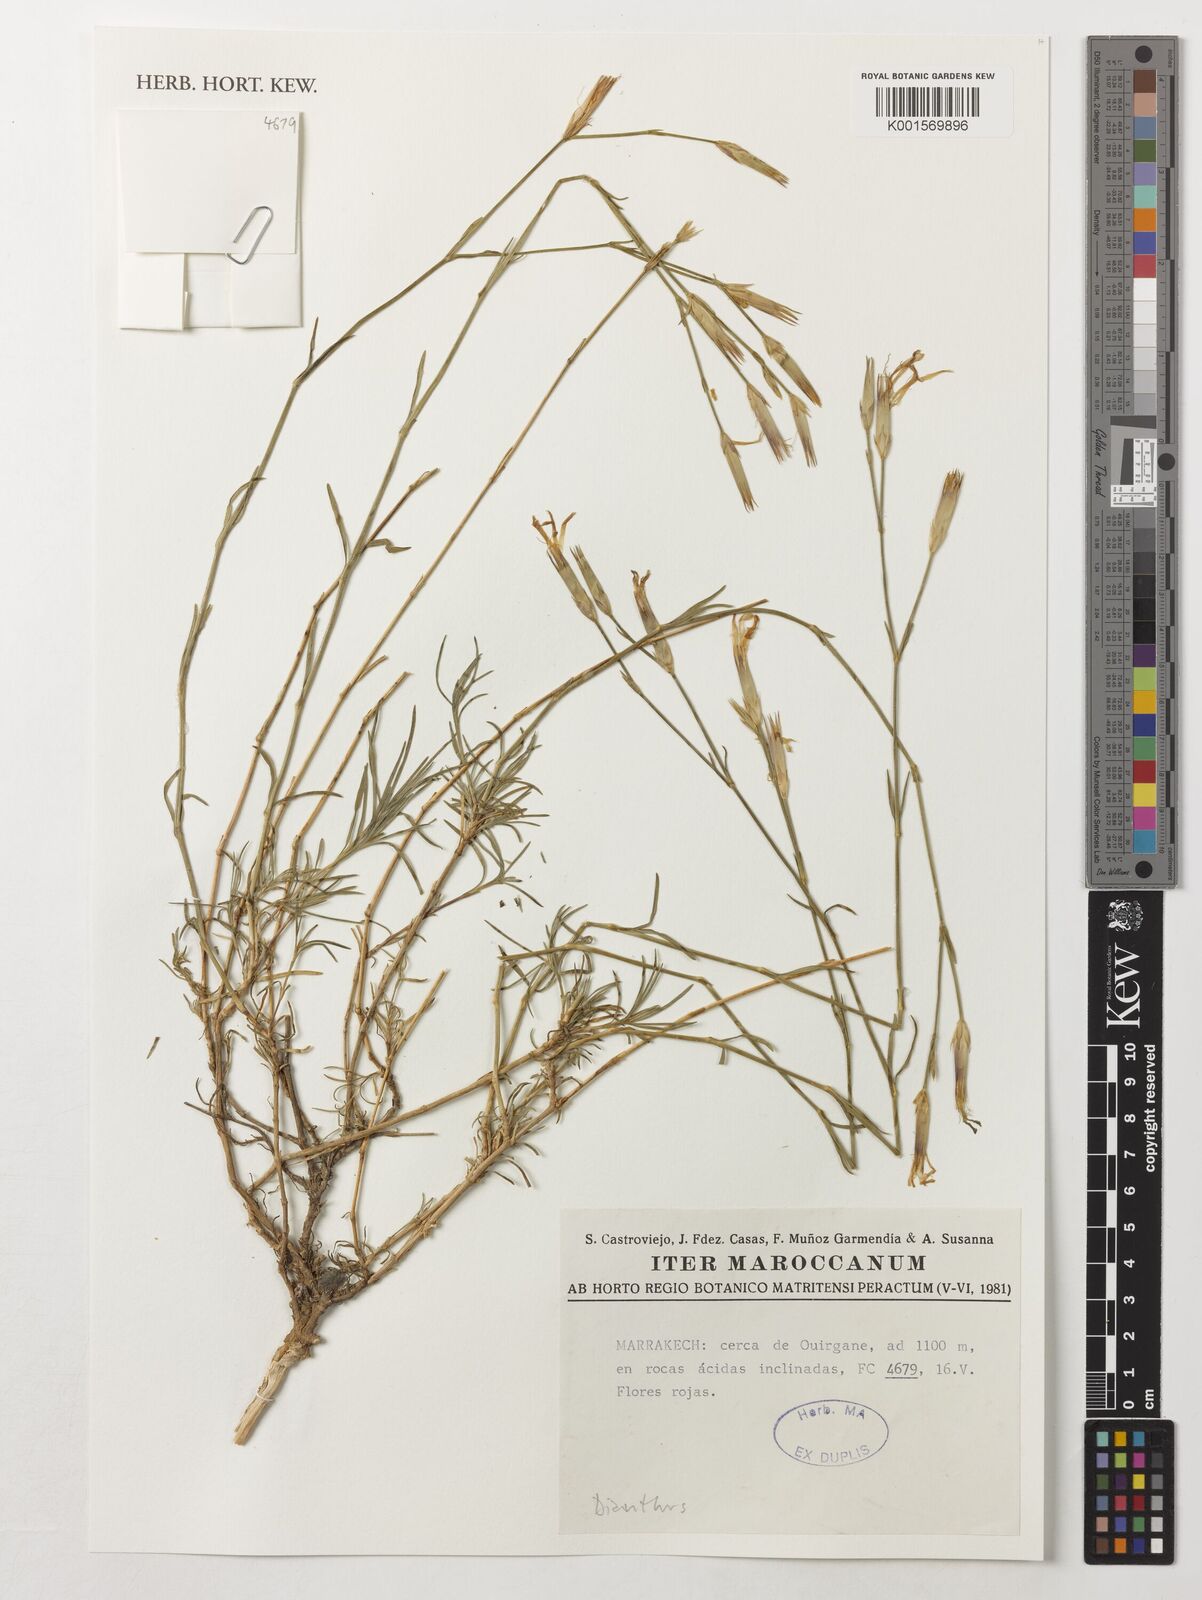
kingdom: Plantae
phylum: Tracheophyta
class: Magnoliopsida
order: Caryophyllales
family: Caryophyllaceae
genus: Dianthus
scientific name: Dianthus
